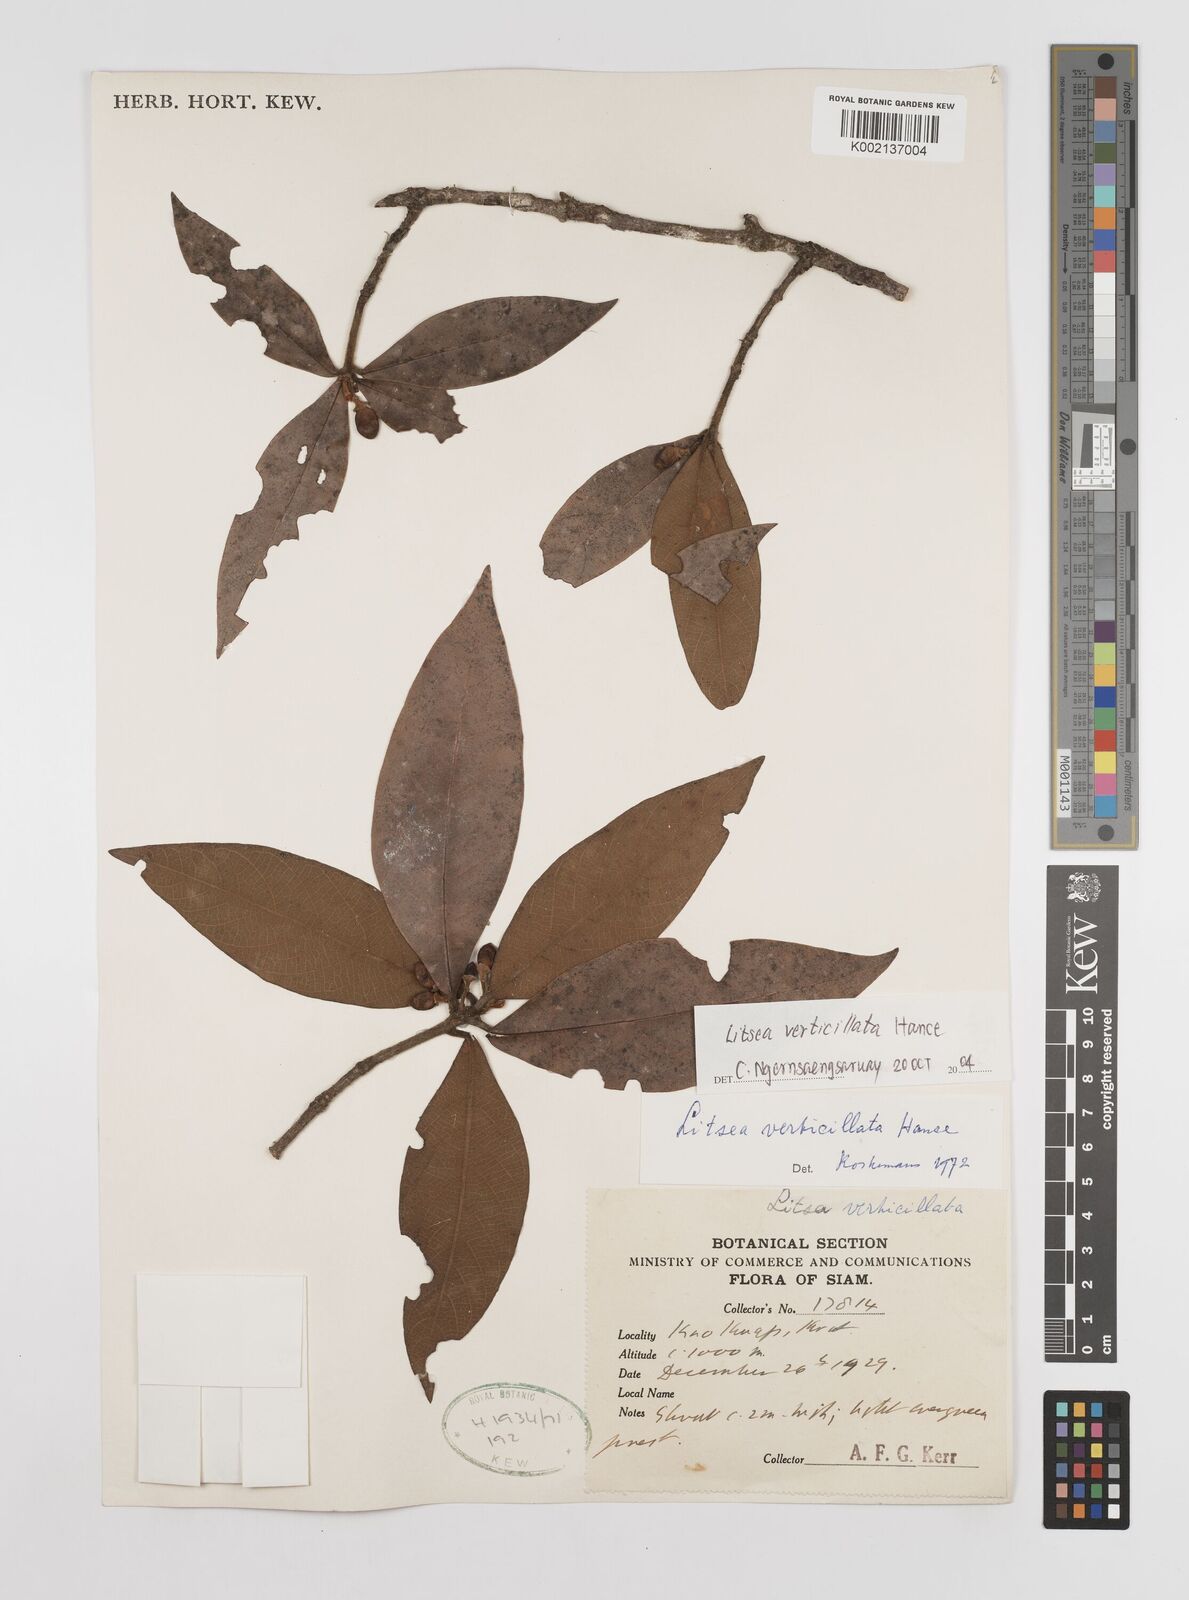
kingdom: Plantae
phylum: Tracheophyta
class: Magnoliopsida
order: Laurales
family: Lauraceae
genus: Litsea
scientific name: Litsea verticillata
